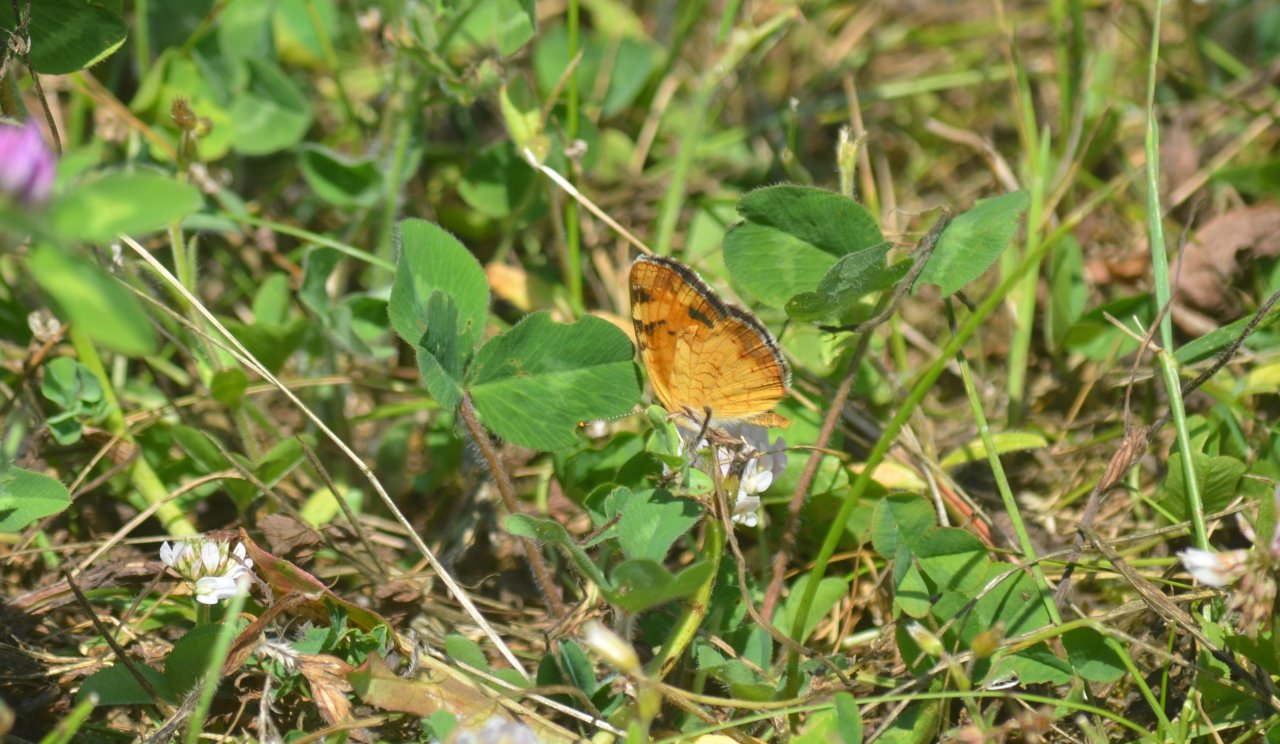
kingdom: Animalia
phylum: Arthropoda
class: Insecta
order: Lepidoptera
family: Nymphalidae
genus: Phyciodes
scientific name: Phyciodes tharos
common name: Northern Crescent
